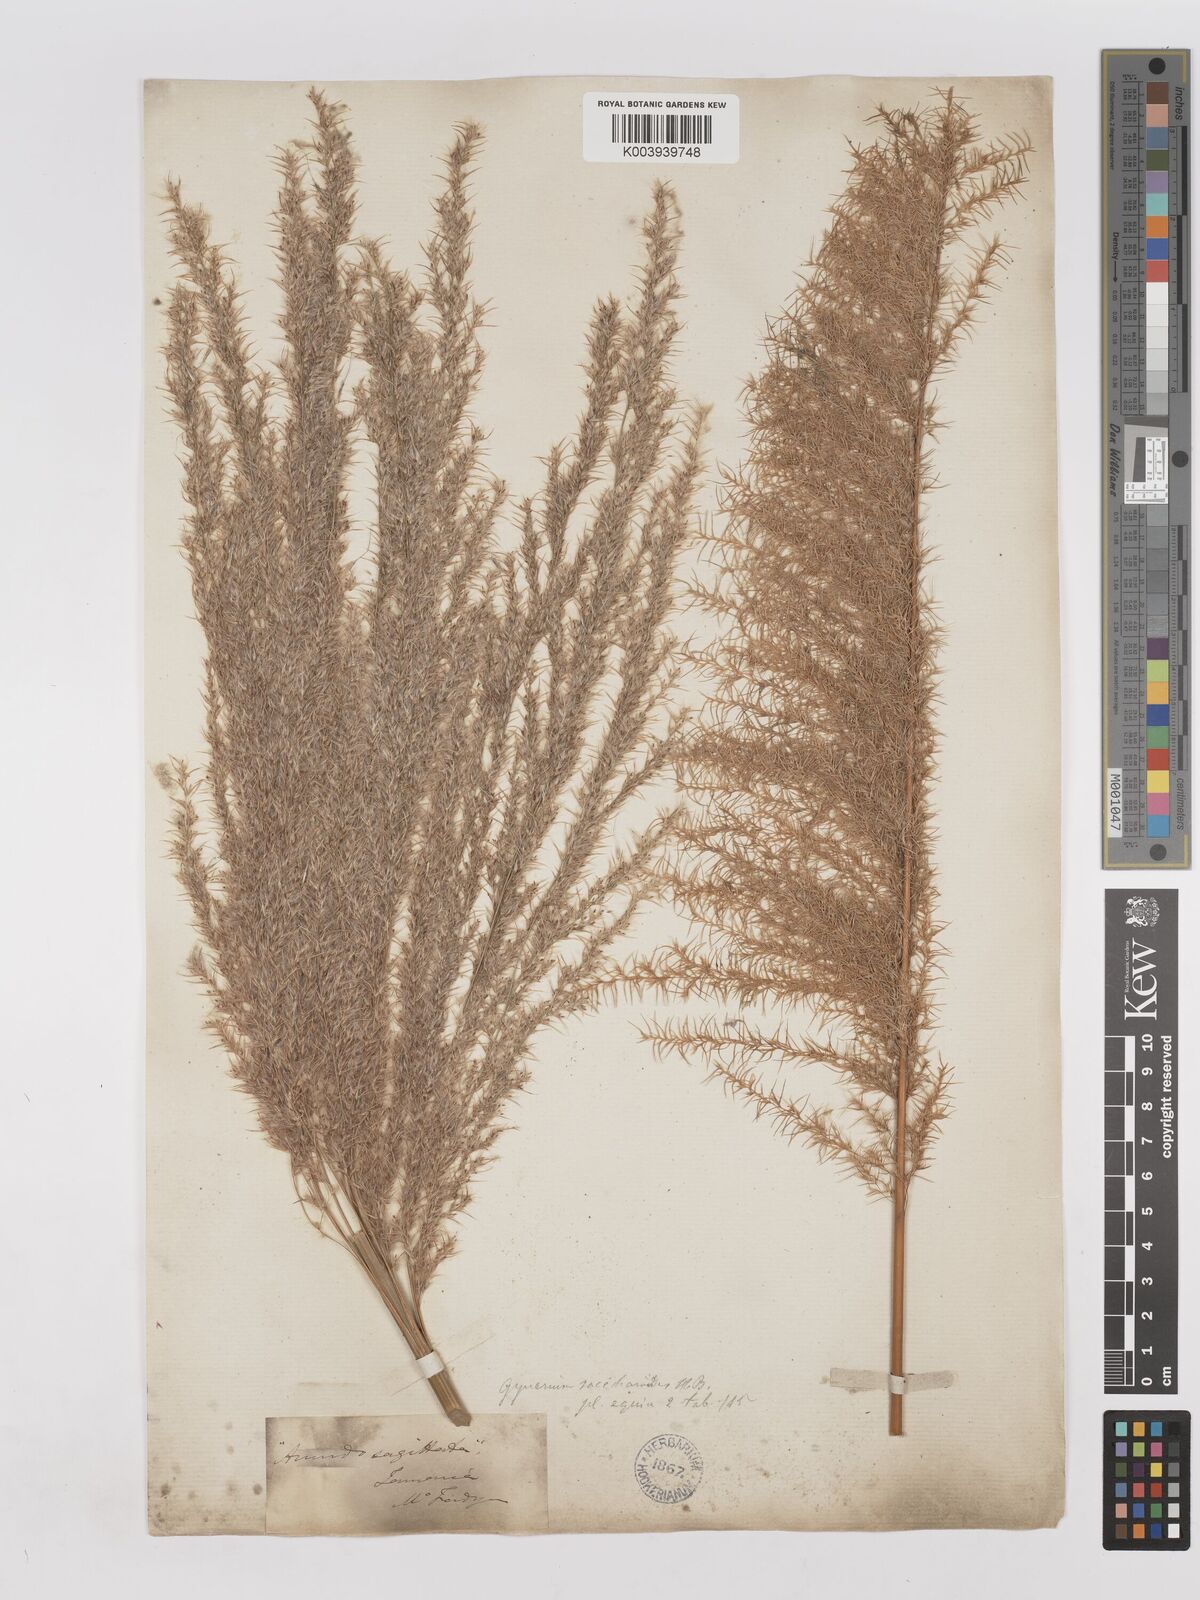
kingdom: Plantae
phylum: Tracheophyta
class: Liliopsida
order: Poales
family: Poaceae
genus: Gynerium
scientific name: Gynerium sagittatum
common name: Wild cane
